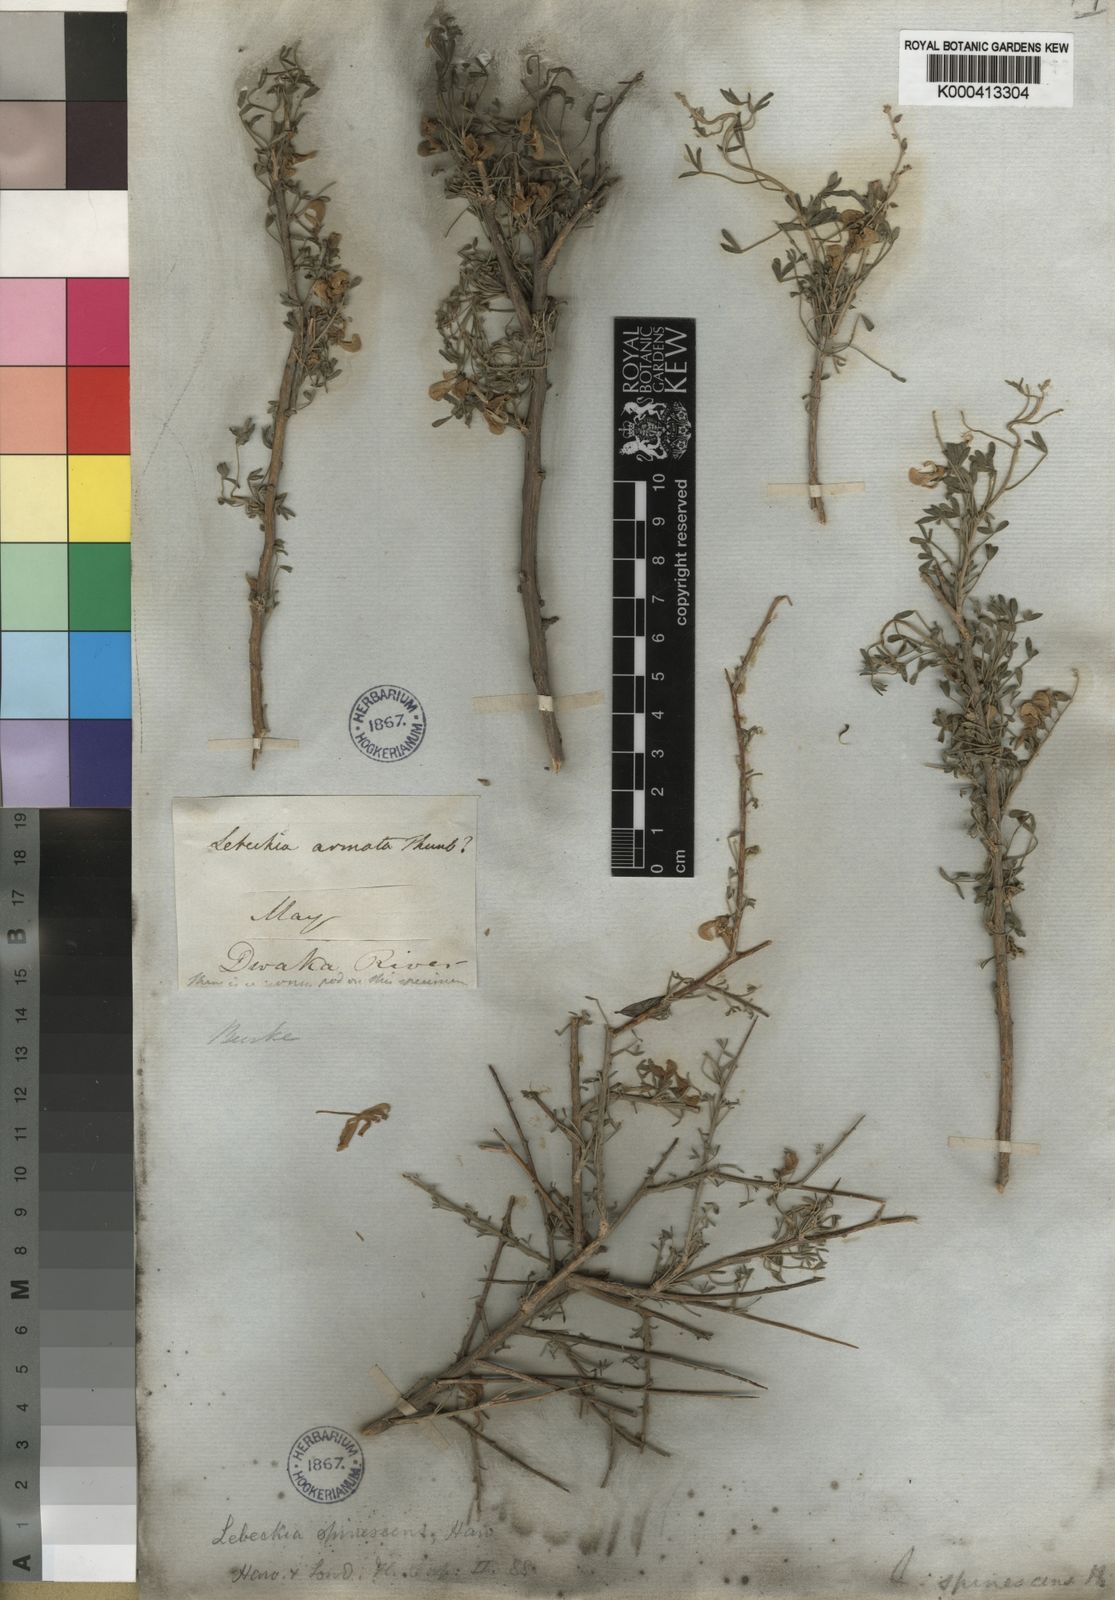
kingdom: Plantae
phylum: Tracheophyta
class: Magnoliopsida
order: Fabales
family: Fabaceae
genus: Calobota
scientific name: Calobota spinescens
